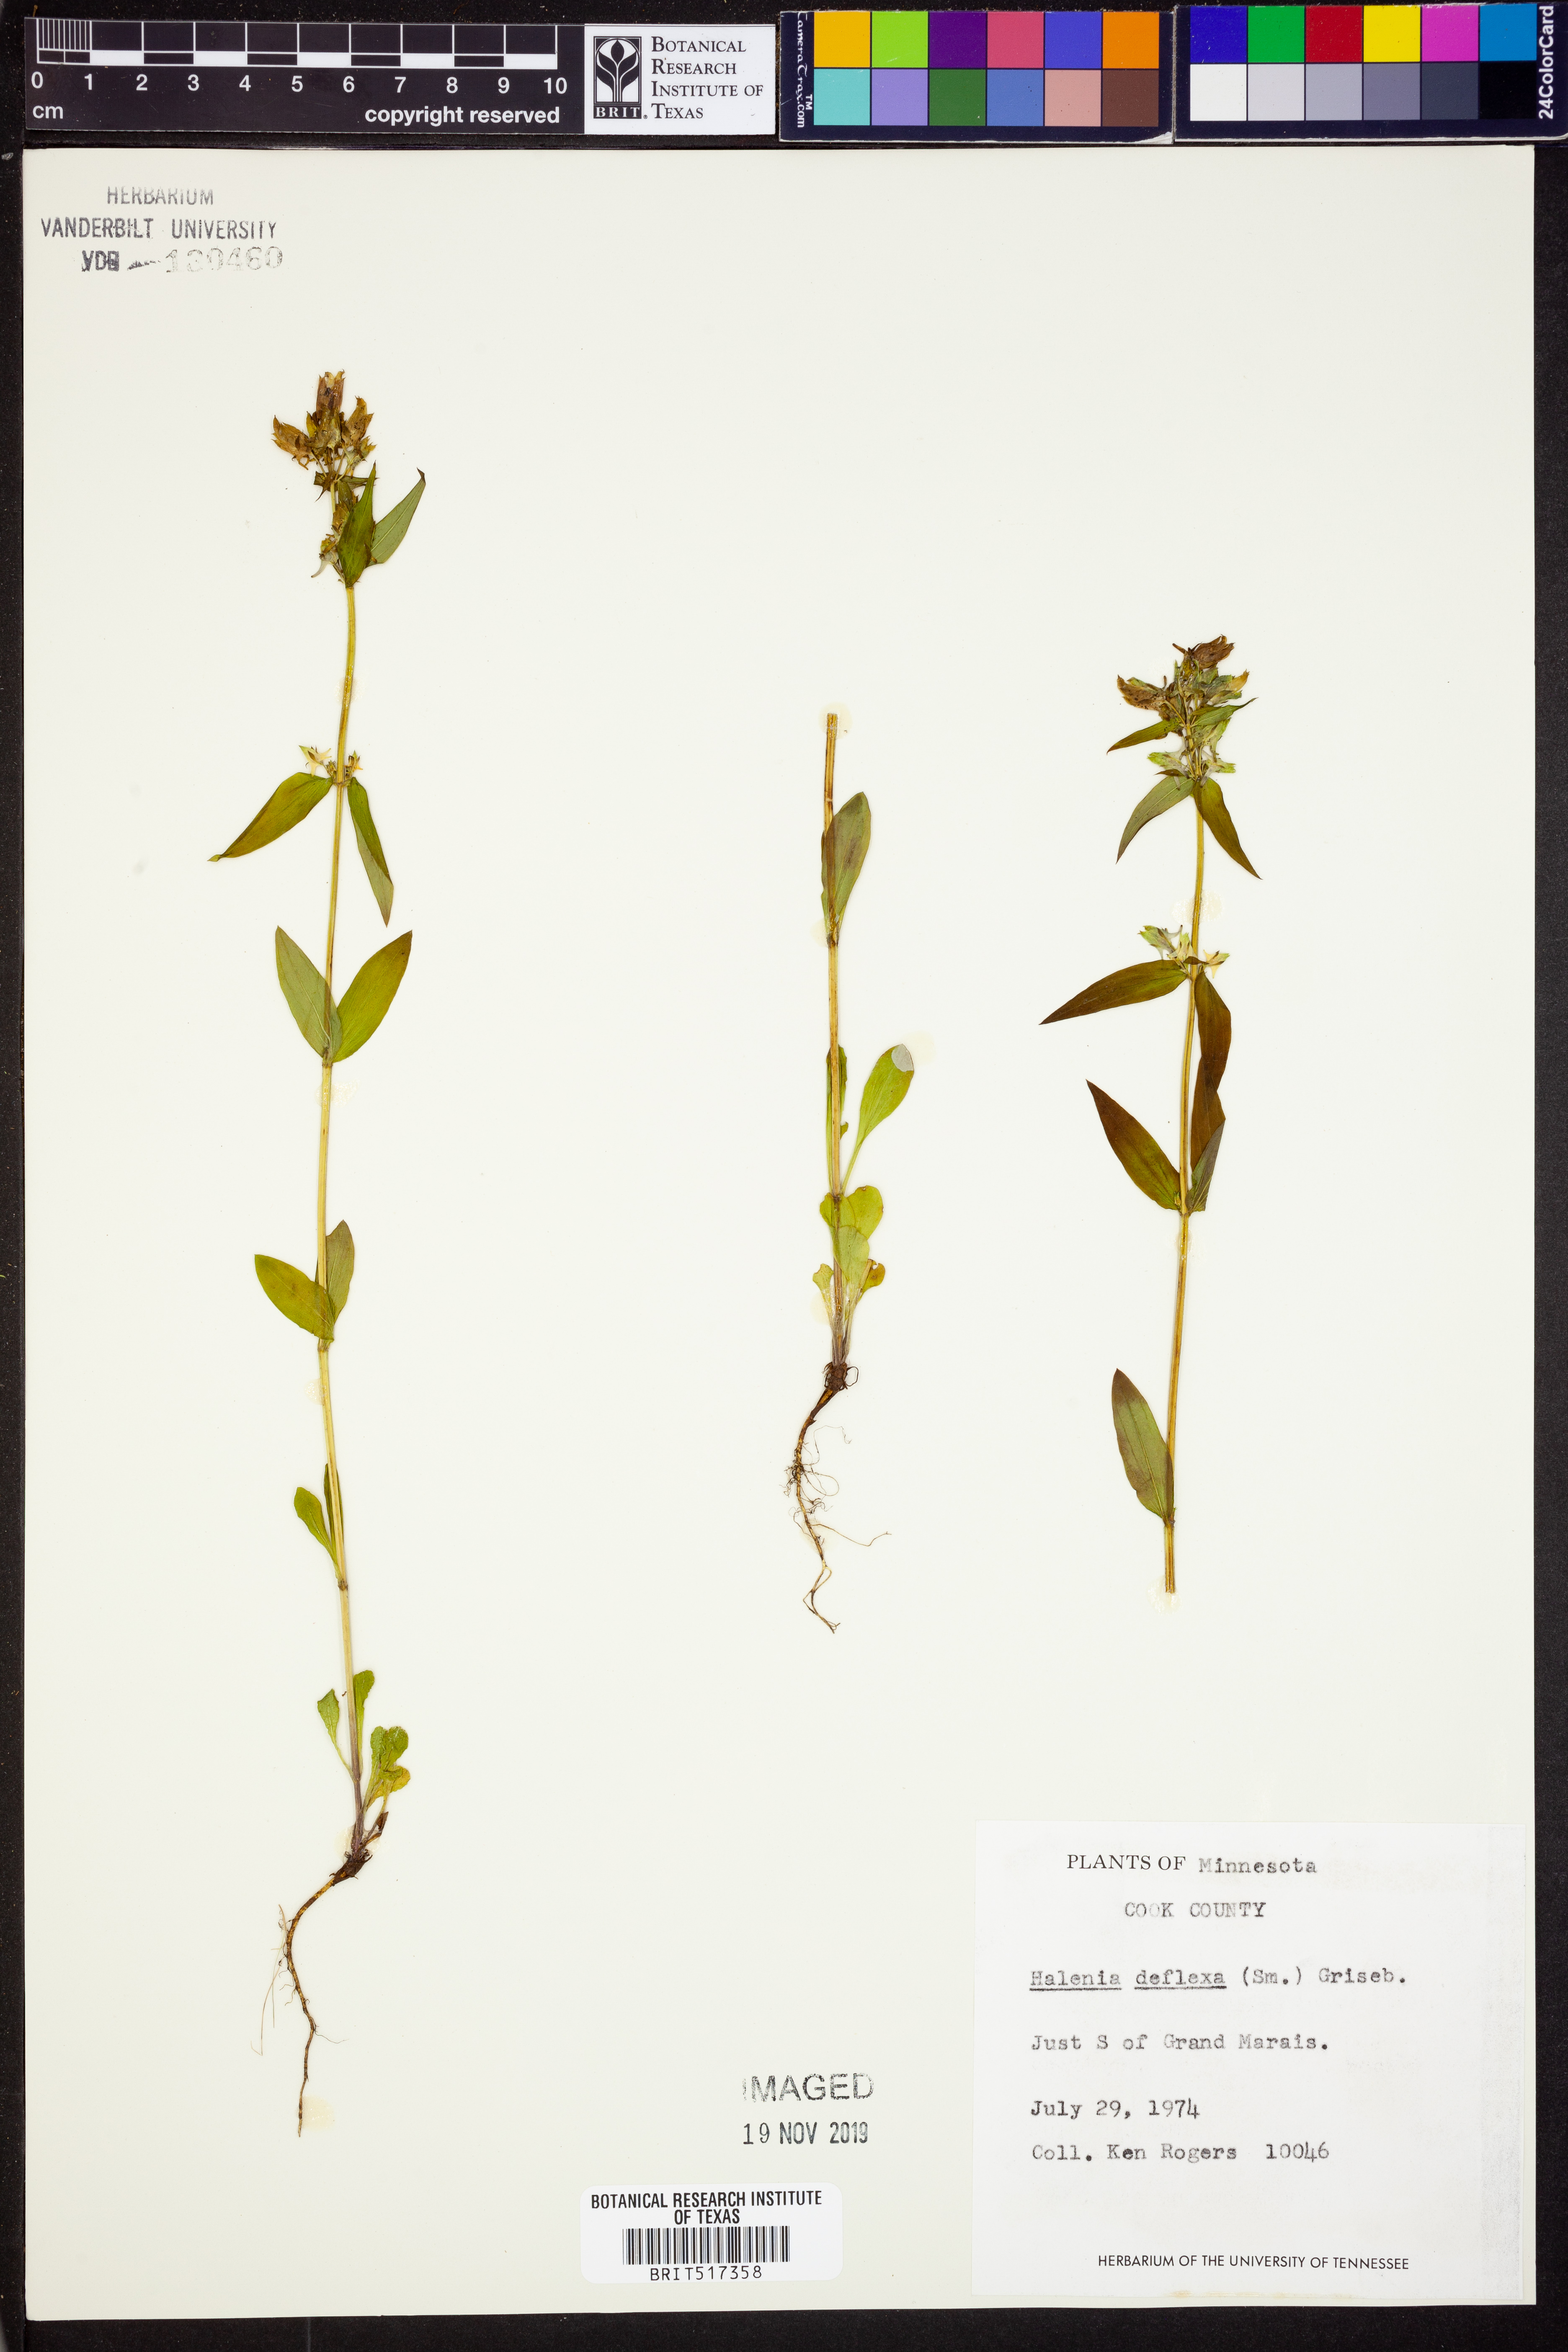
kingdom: Plantae
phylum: Tracheophyta
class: Magnoliopsida
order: Gentianales
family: Gentianaceae
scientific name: Gentianaceae
